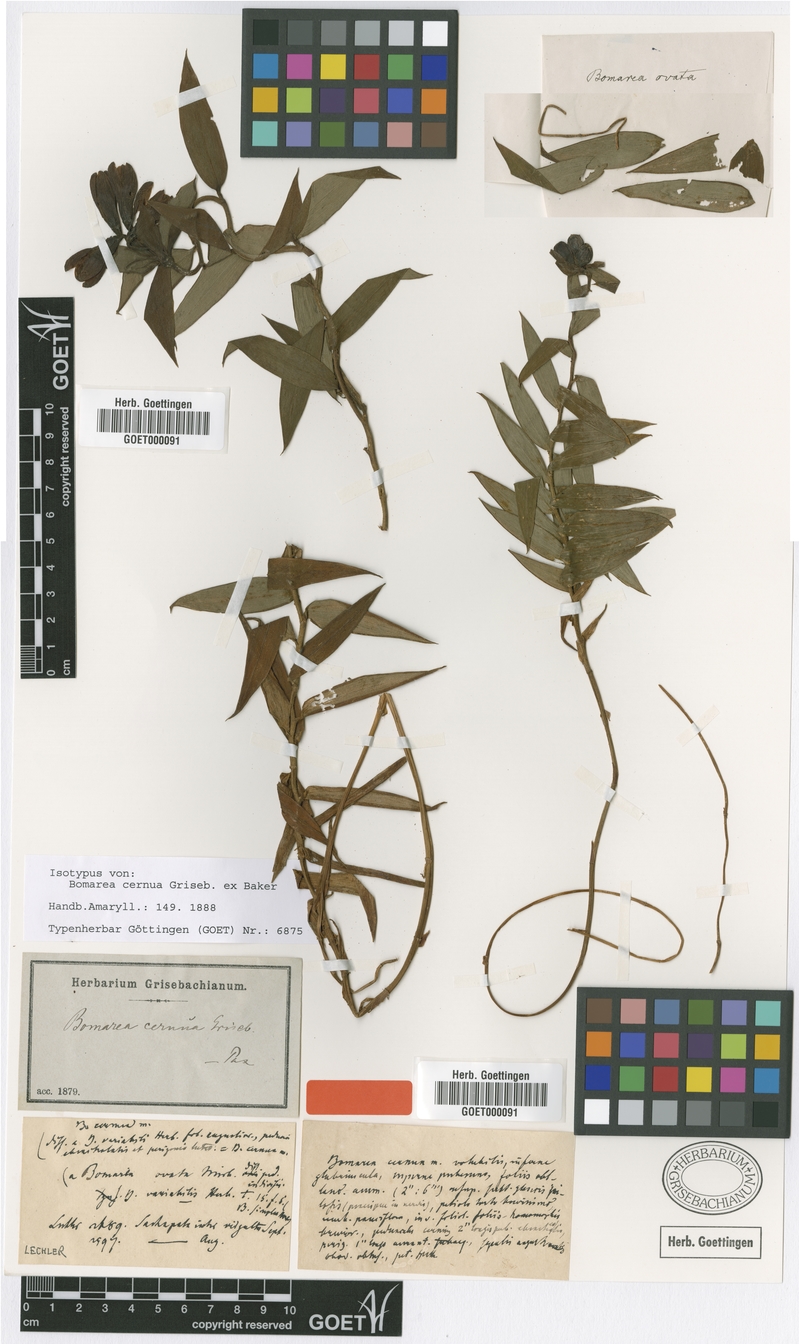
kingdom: Plantae
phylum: Tracheophyta
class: Liliopsida
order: Liliales
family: Alstroemeriaceae
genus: Bomarea
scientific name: Bomarea aurantiaca
